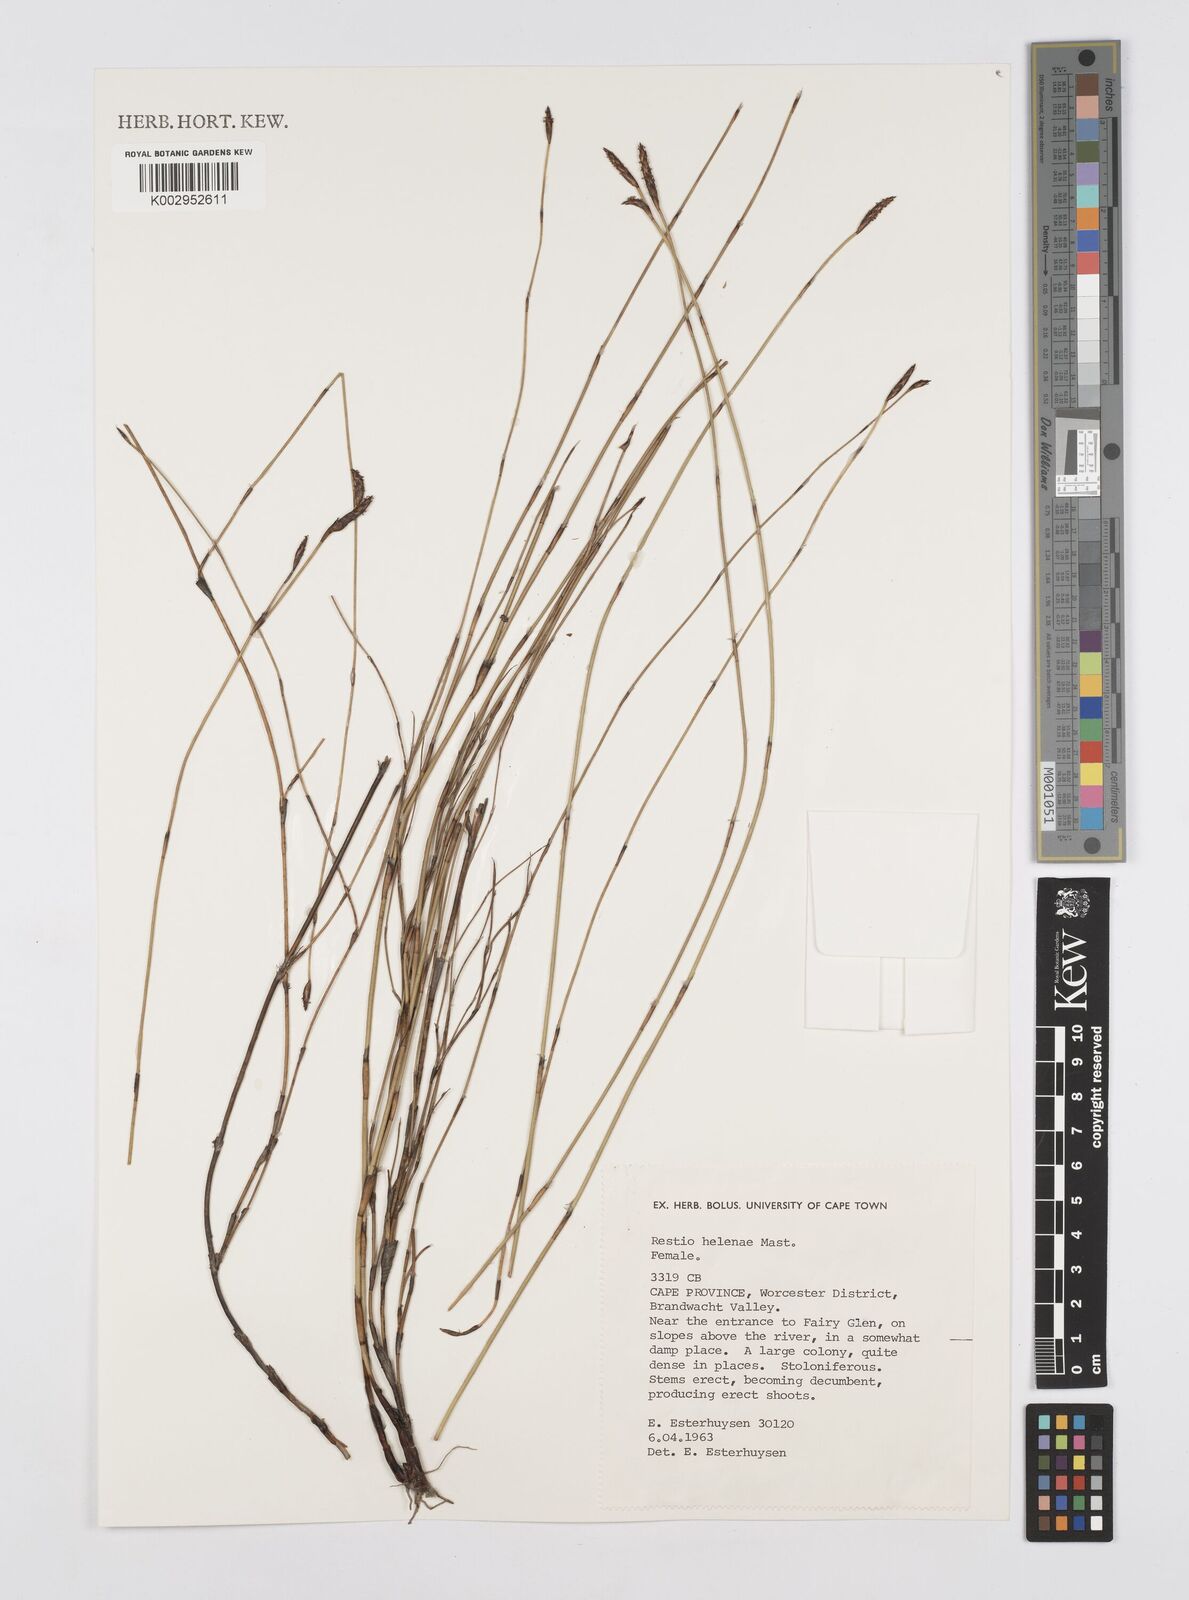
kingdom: Plantae
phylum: Tracheophyta
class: Liliopsida
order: Poales
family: Restionaceae
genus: Restio
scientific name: Restio helenae
